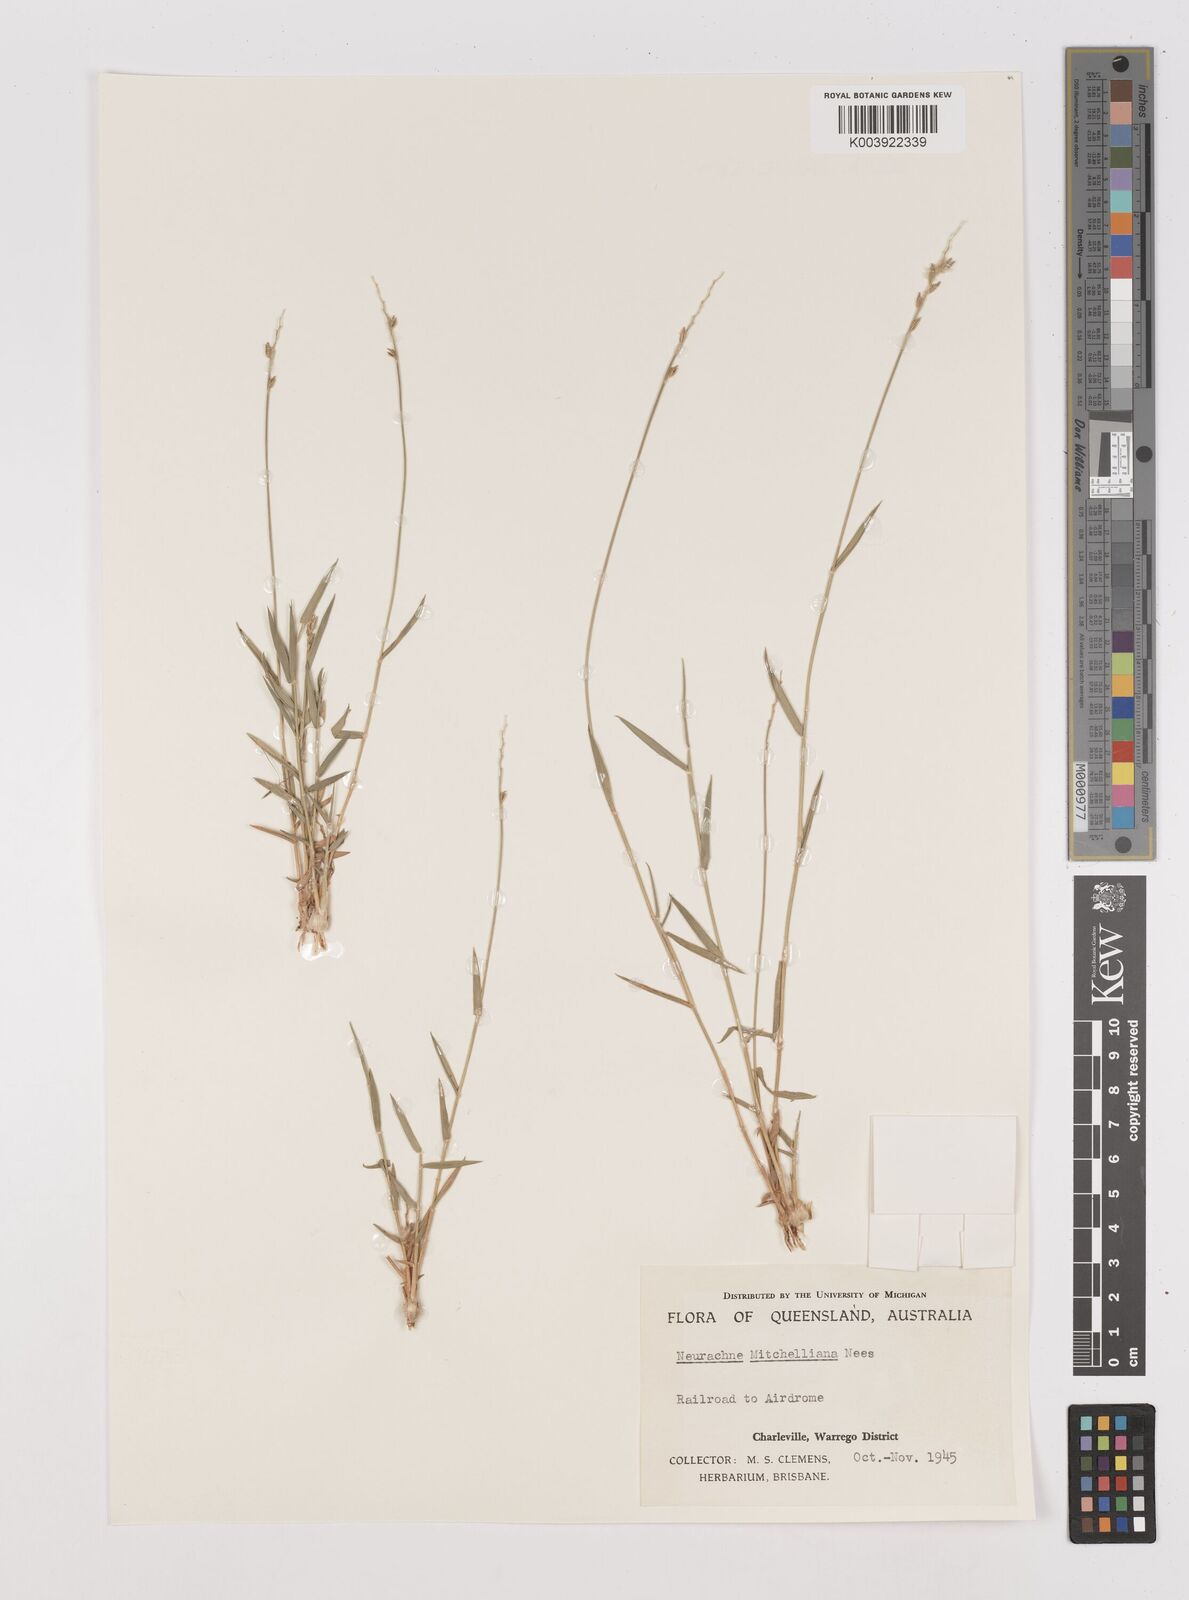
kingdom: Plantae
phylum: Tracheophyta
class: Liliopsida
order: Poales
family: Poaceae
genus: Thyridolepis
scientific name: Thyridolepis mitchelliana
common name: Rock tassel grass
